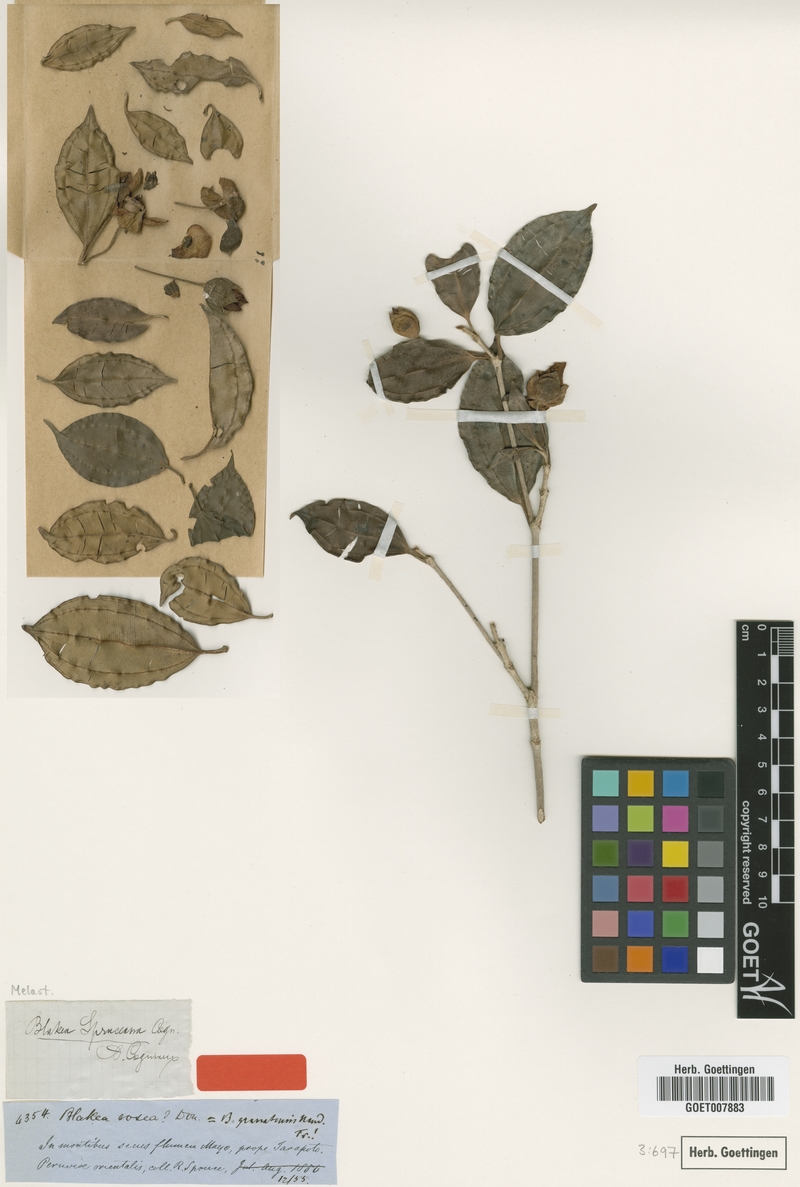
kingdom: Plantae
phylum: Tracheophyta
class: Magnoliopsida
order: Myrtales
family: Melastomataceae
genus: Blakea
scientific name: Blakea spruceana
